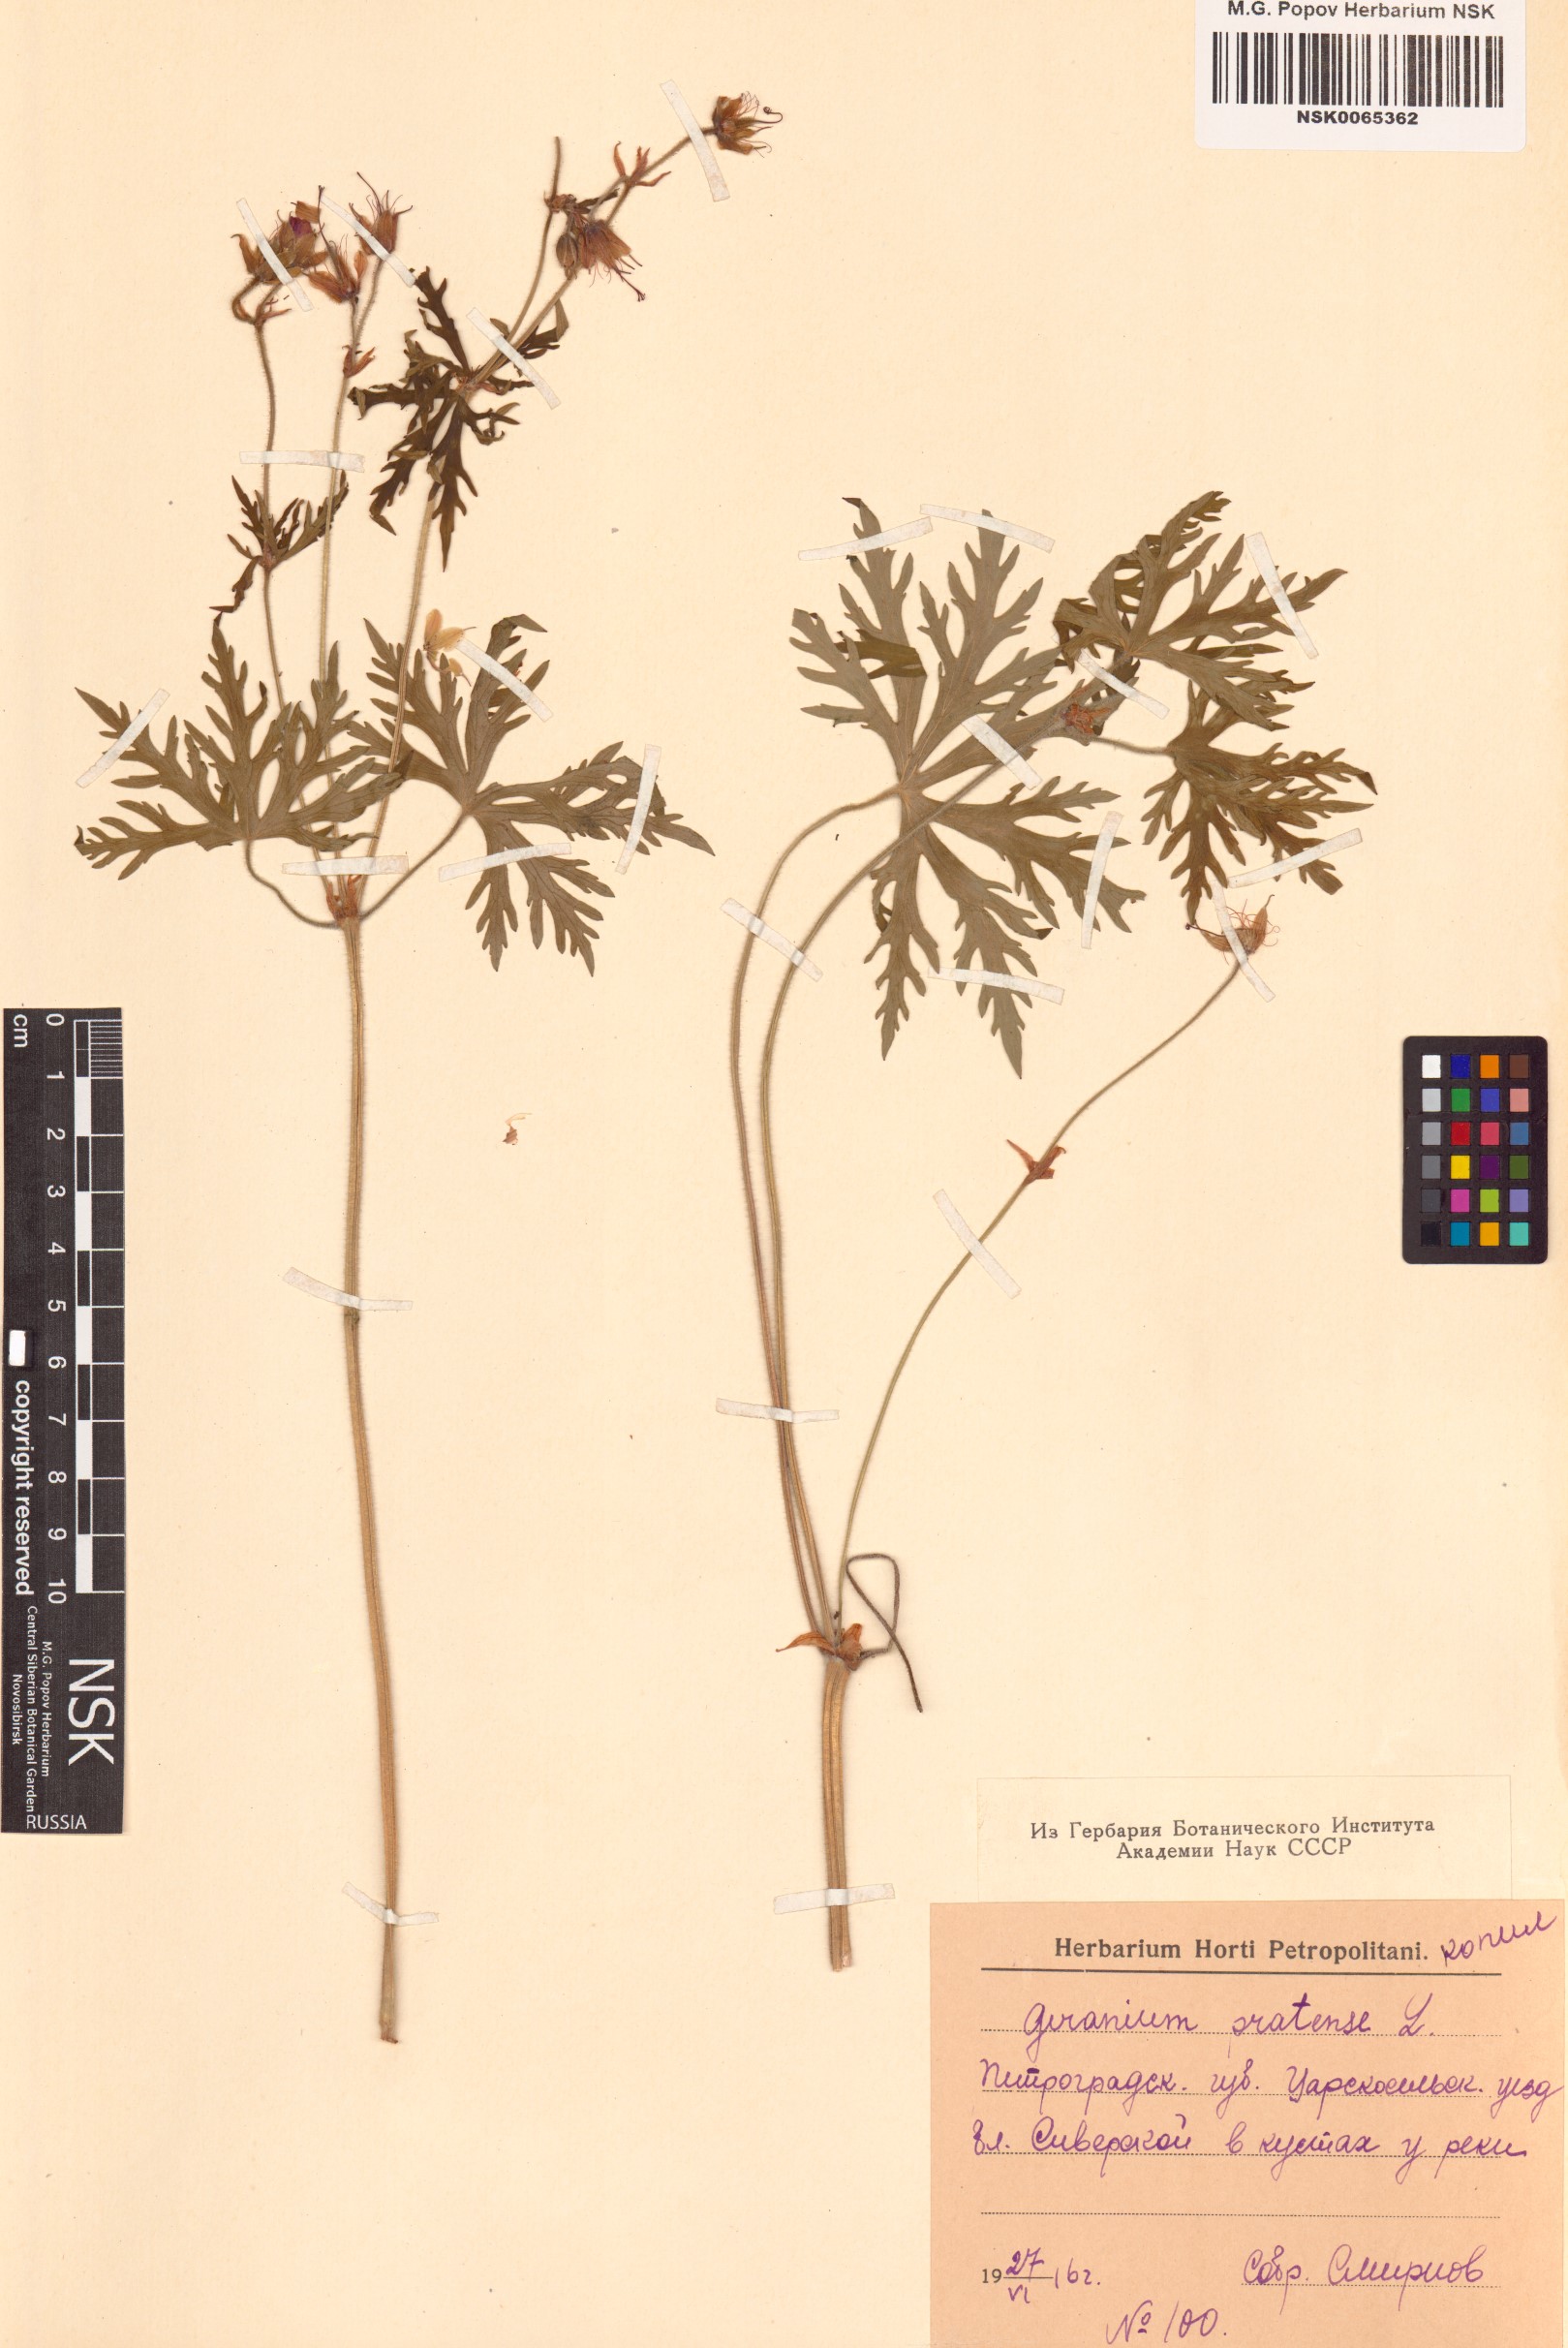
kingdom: Plantae
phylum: Tracheophyta
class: Magnoliopsida
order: Geraniales
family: Geraniaceae
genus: Geranium
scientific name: Geranium pratense
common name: Meadow crane's-bill
